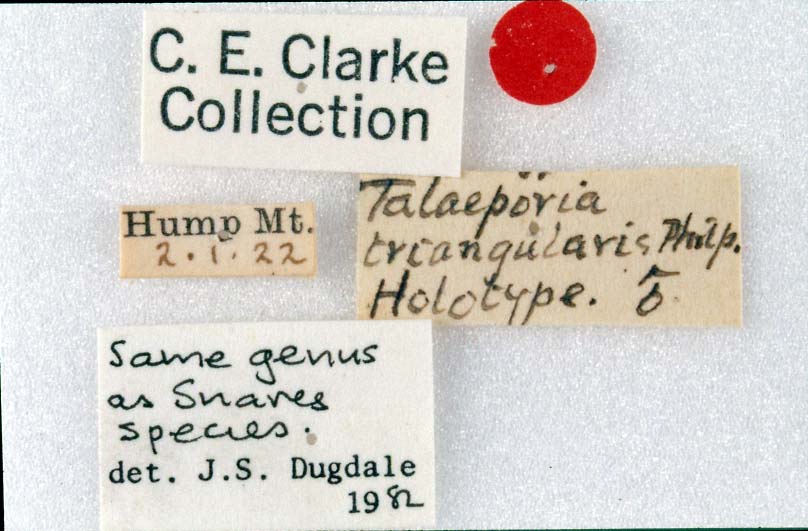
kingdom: Animalia
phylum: Arthropoda
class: Insecta
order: Lepidoptera
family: Psychidae
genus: Grypotheca
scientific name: Grypotheca triangularis
